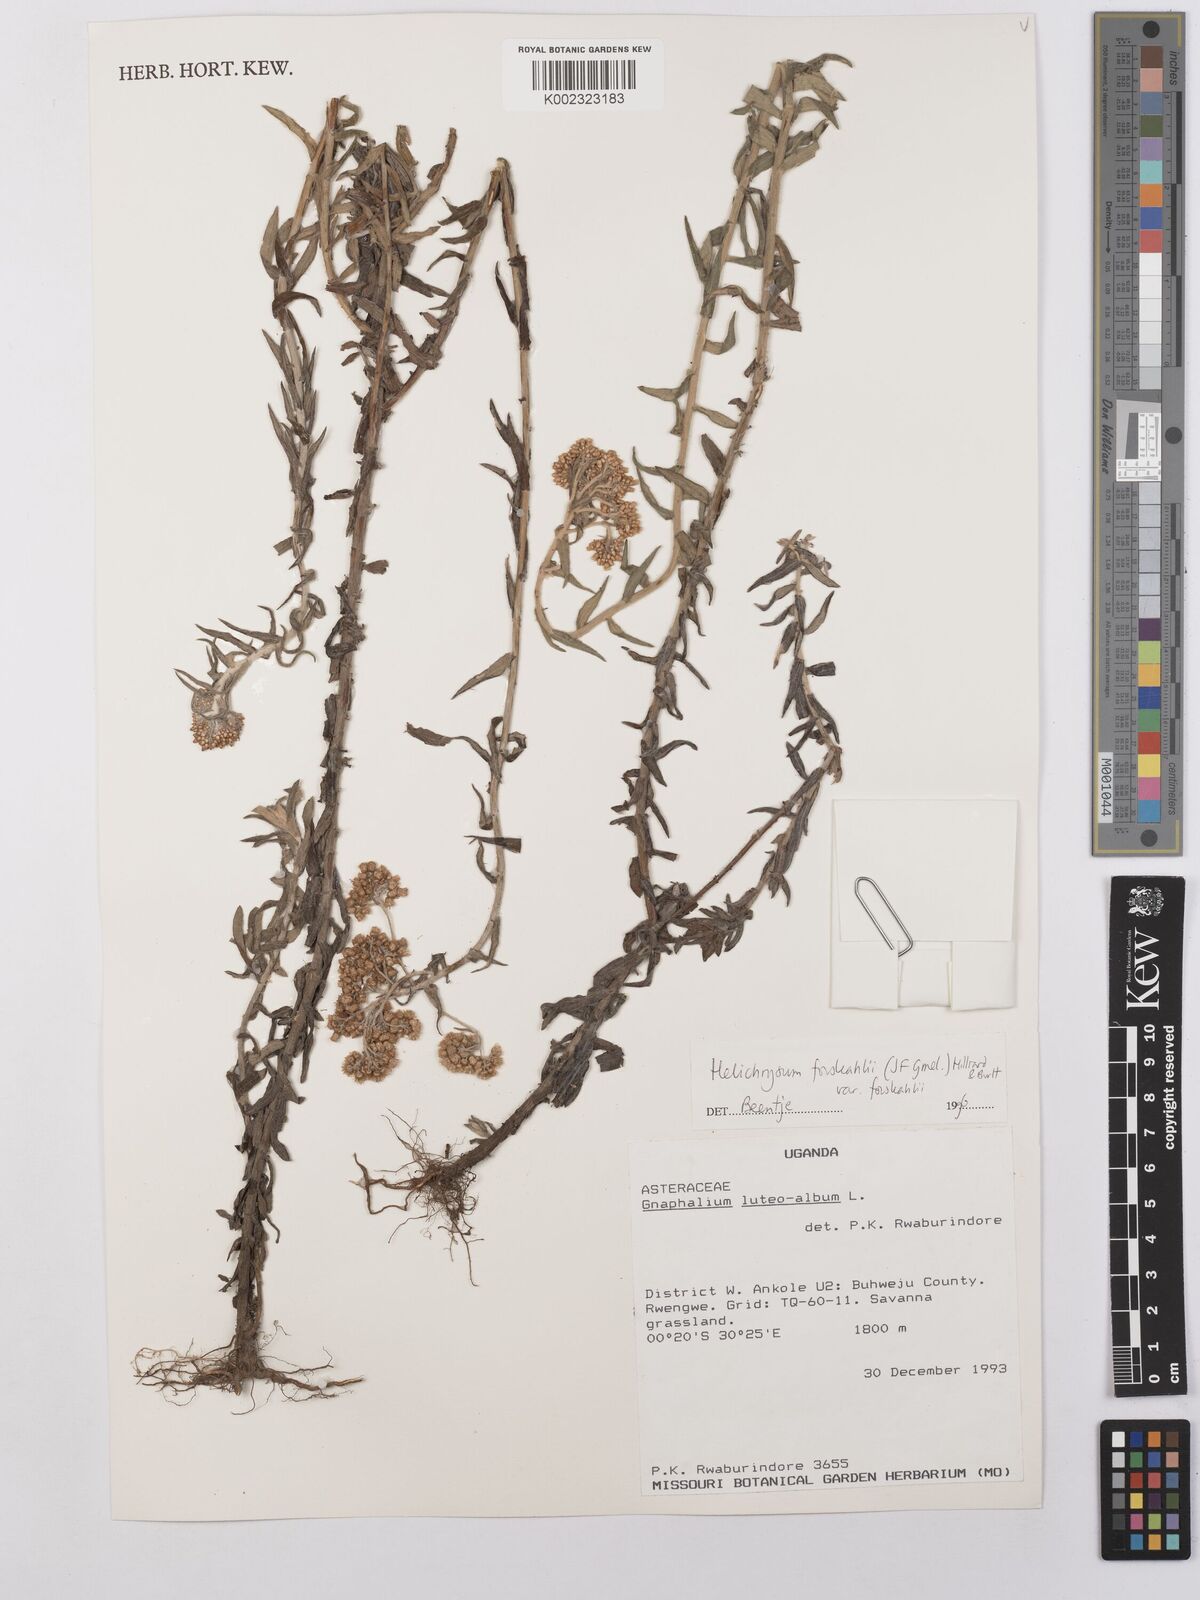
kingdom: Plantae
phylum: Tracheophyta
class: Magnoliopsida
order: Asterales
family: Asteraceae
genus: Helichrysum
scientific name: Helichrysum forskahlii
